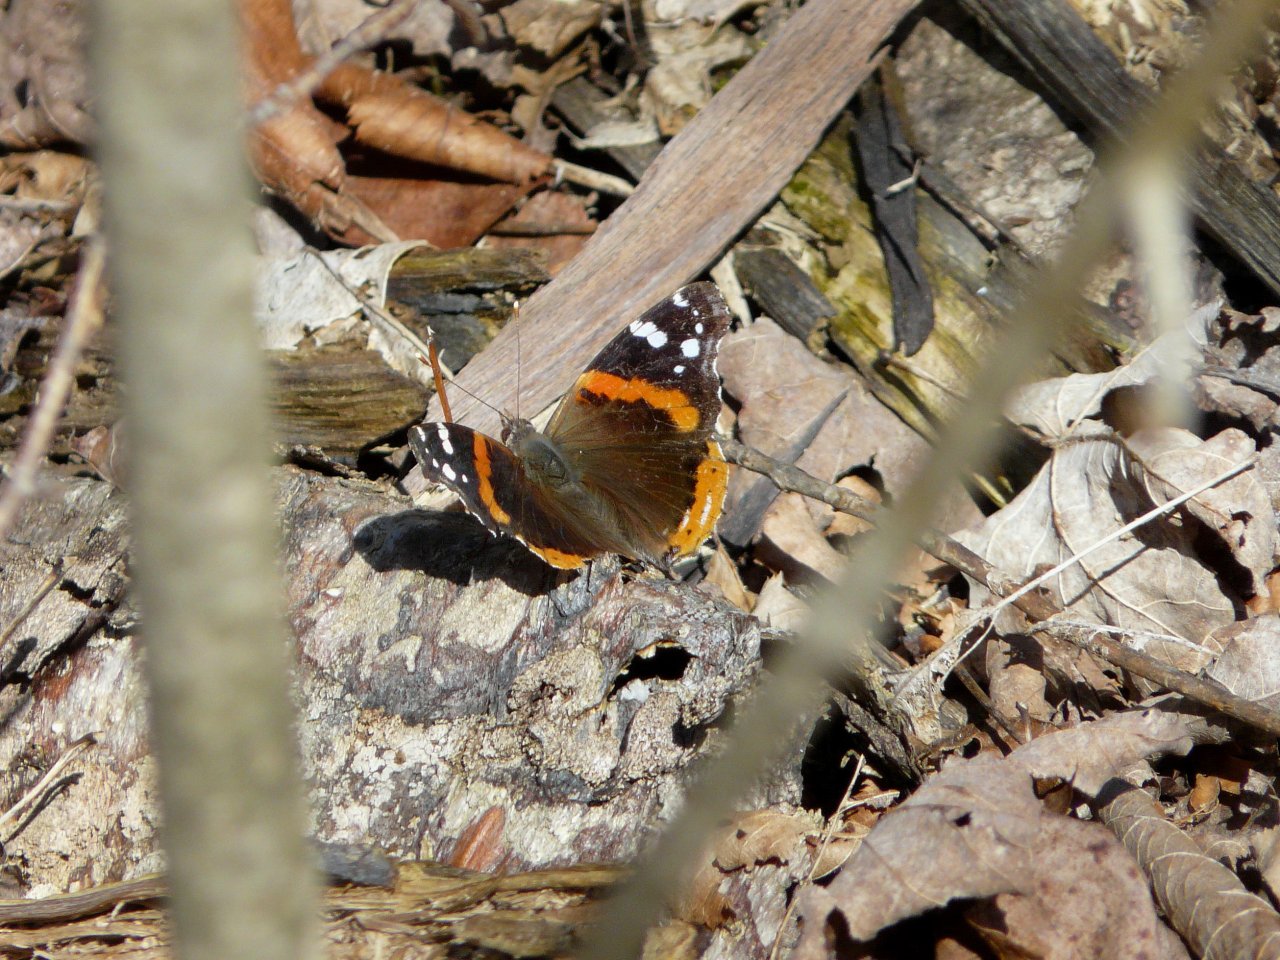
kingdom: Animalia
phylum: Arthropoda
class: Insecta
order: Lepidoptera
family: Nymphalidae
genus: Vanessa
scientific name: Vanessa atalanta
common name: Red Admiral
